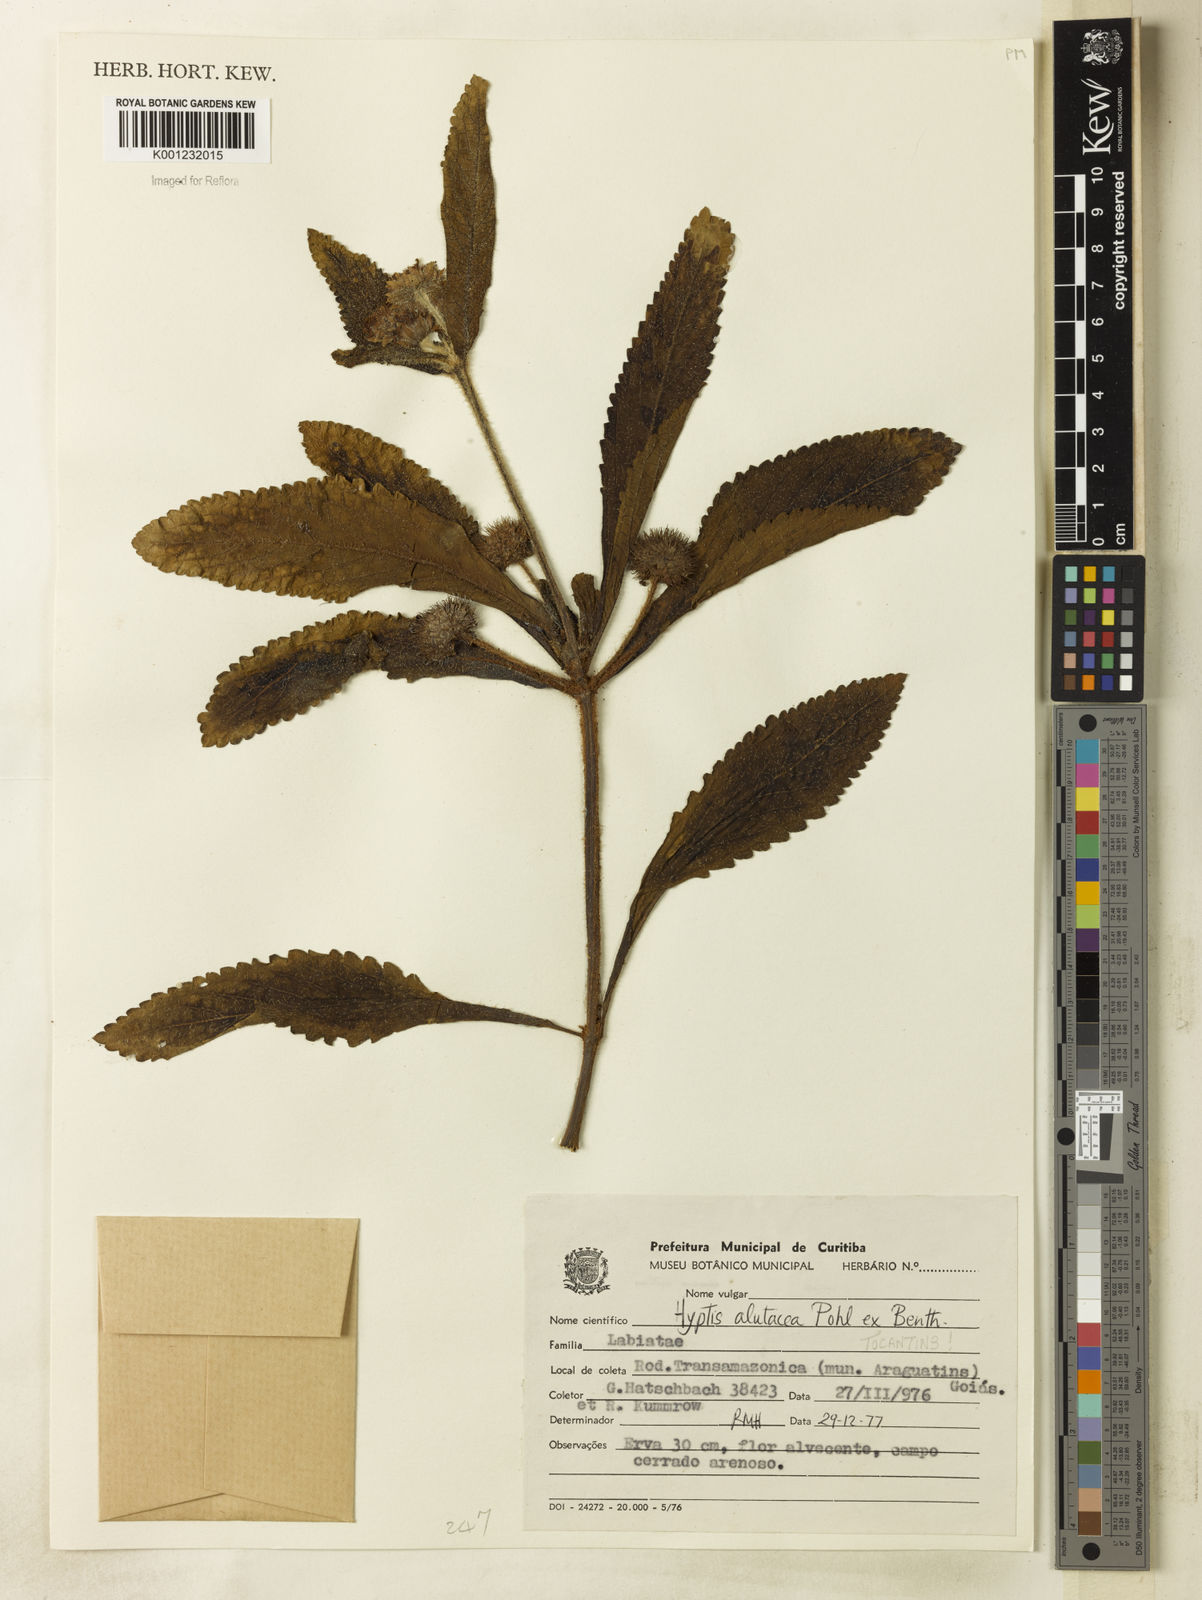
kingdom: Plantae
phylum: Tracheophyta
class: Magnoliopsida
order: Lamiales
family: Lamiaceae
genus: Hyptis
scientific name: Hyptis alutacea
